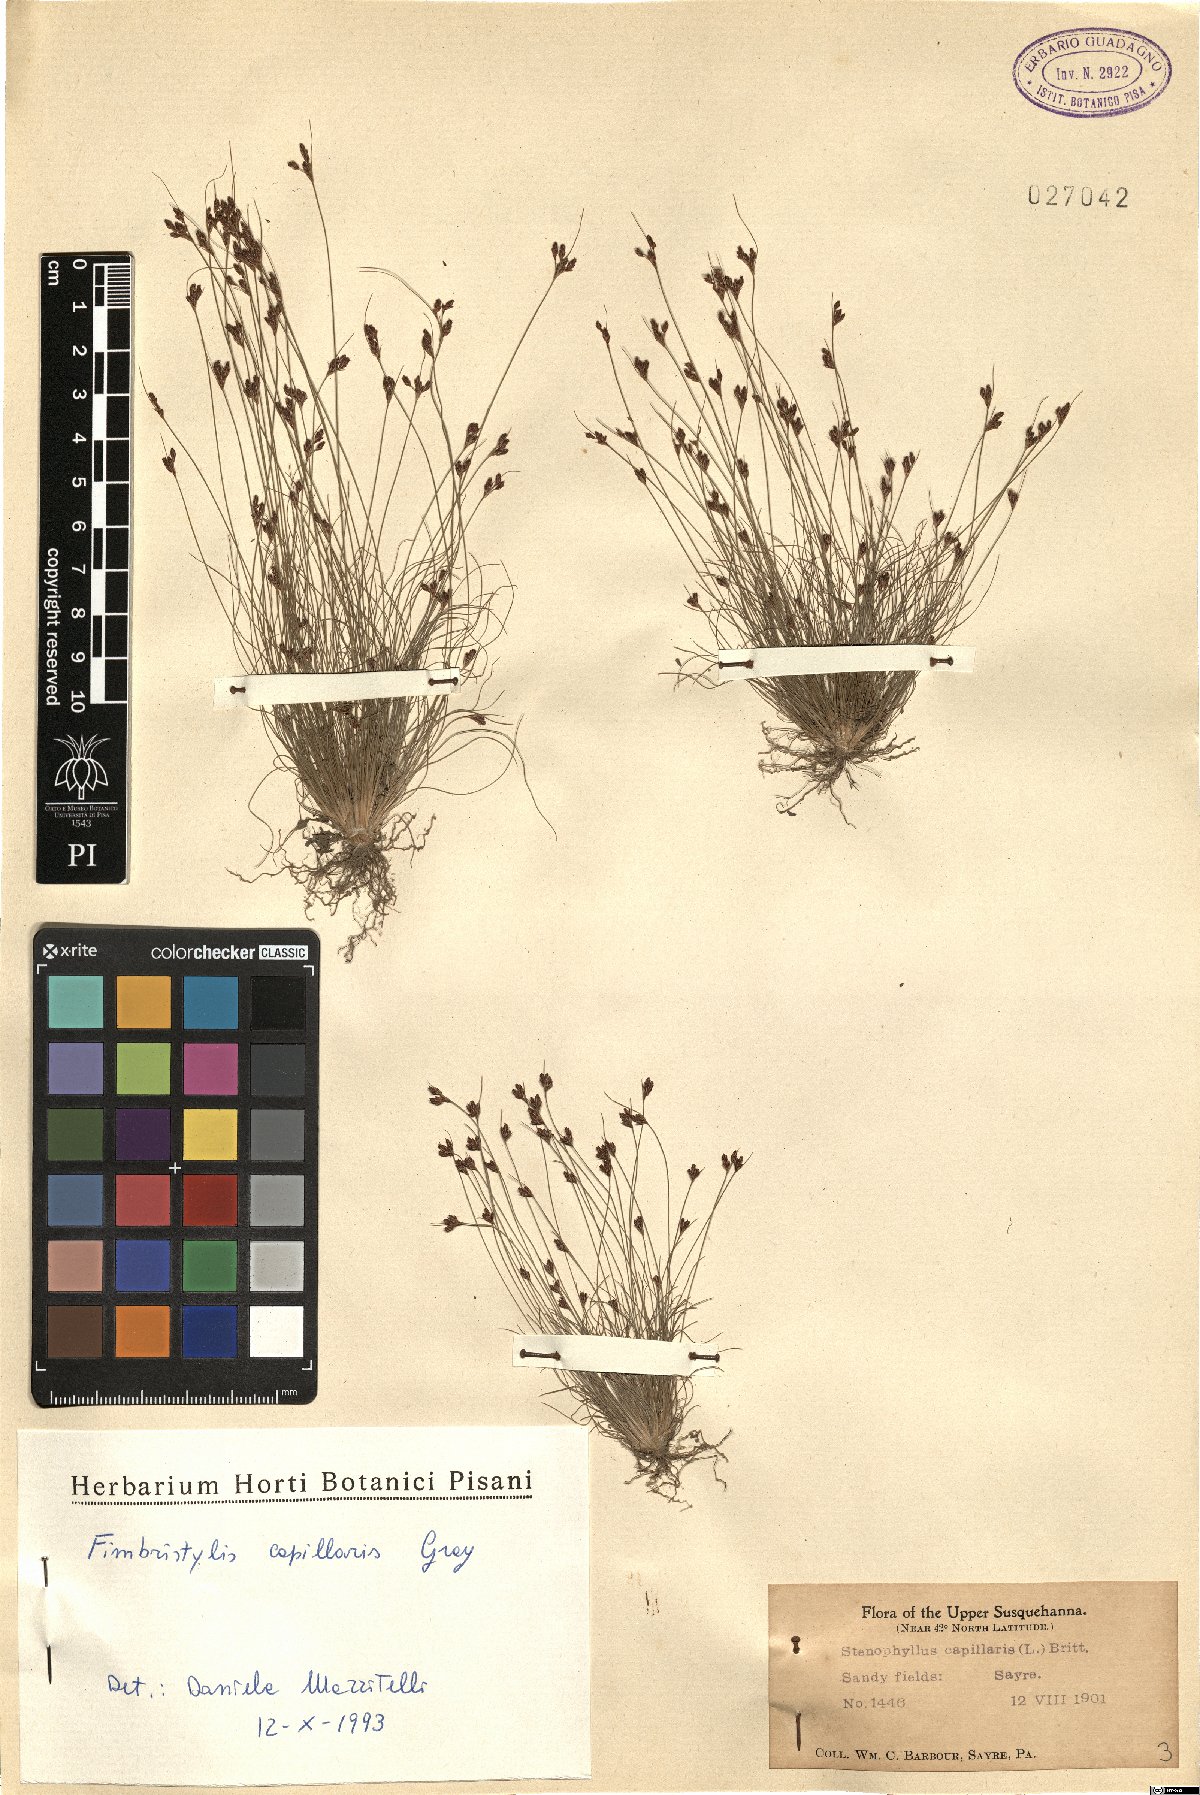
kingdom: Plantae
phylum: Tracheophyta
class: Liliopsida
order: Poales
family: Cyperaceae
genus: Bulbostylis
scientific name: Bulbostylis capillaris
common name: Densetuft hairsedge
